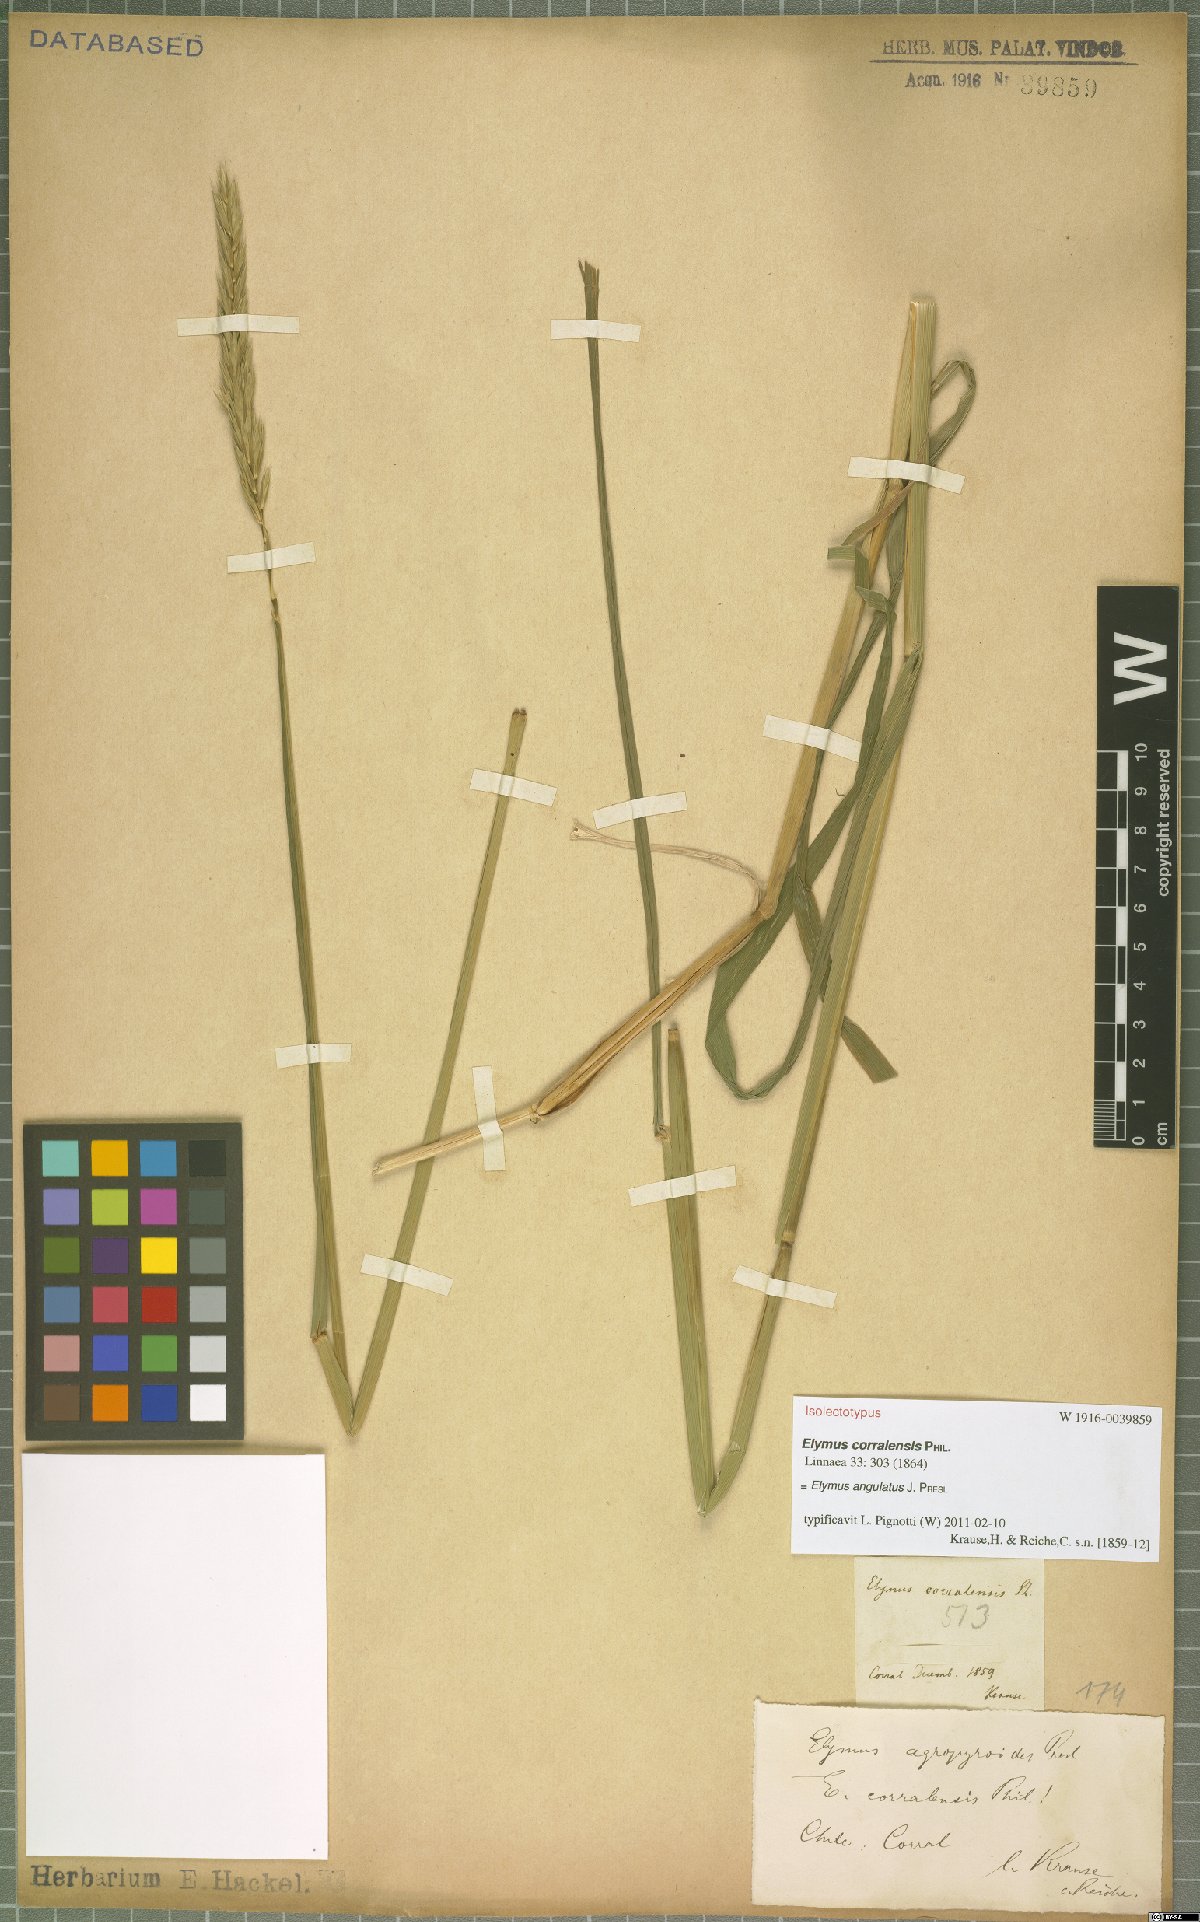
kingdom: Plantae
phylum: Tracheophyta
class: Liliopsida
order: Poales
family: Poaceae
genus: Elymus
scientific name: Elymus angulatus
